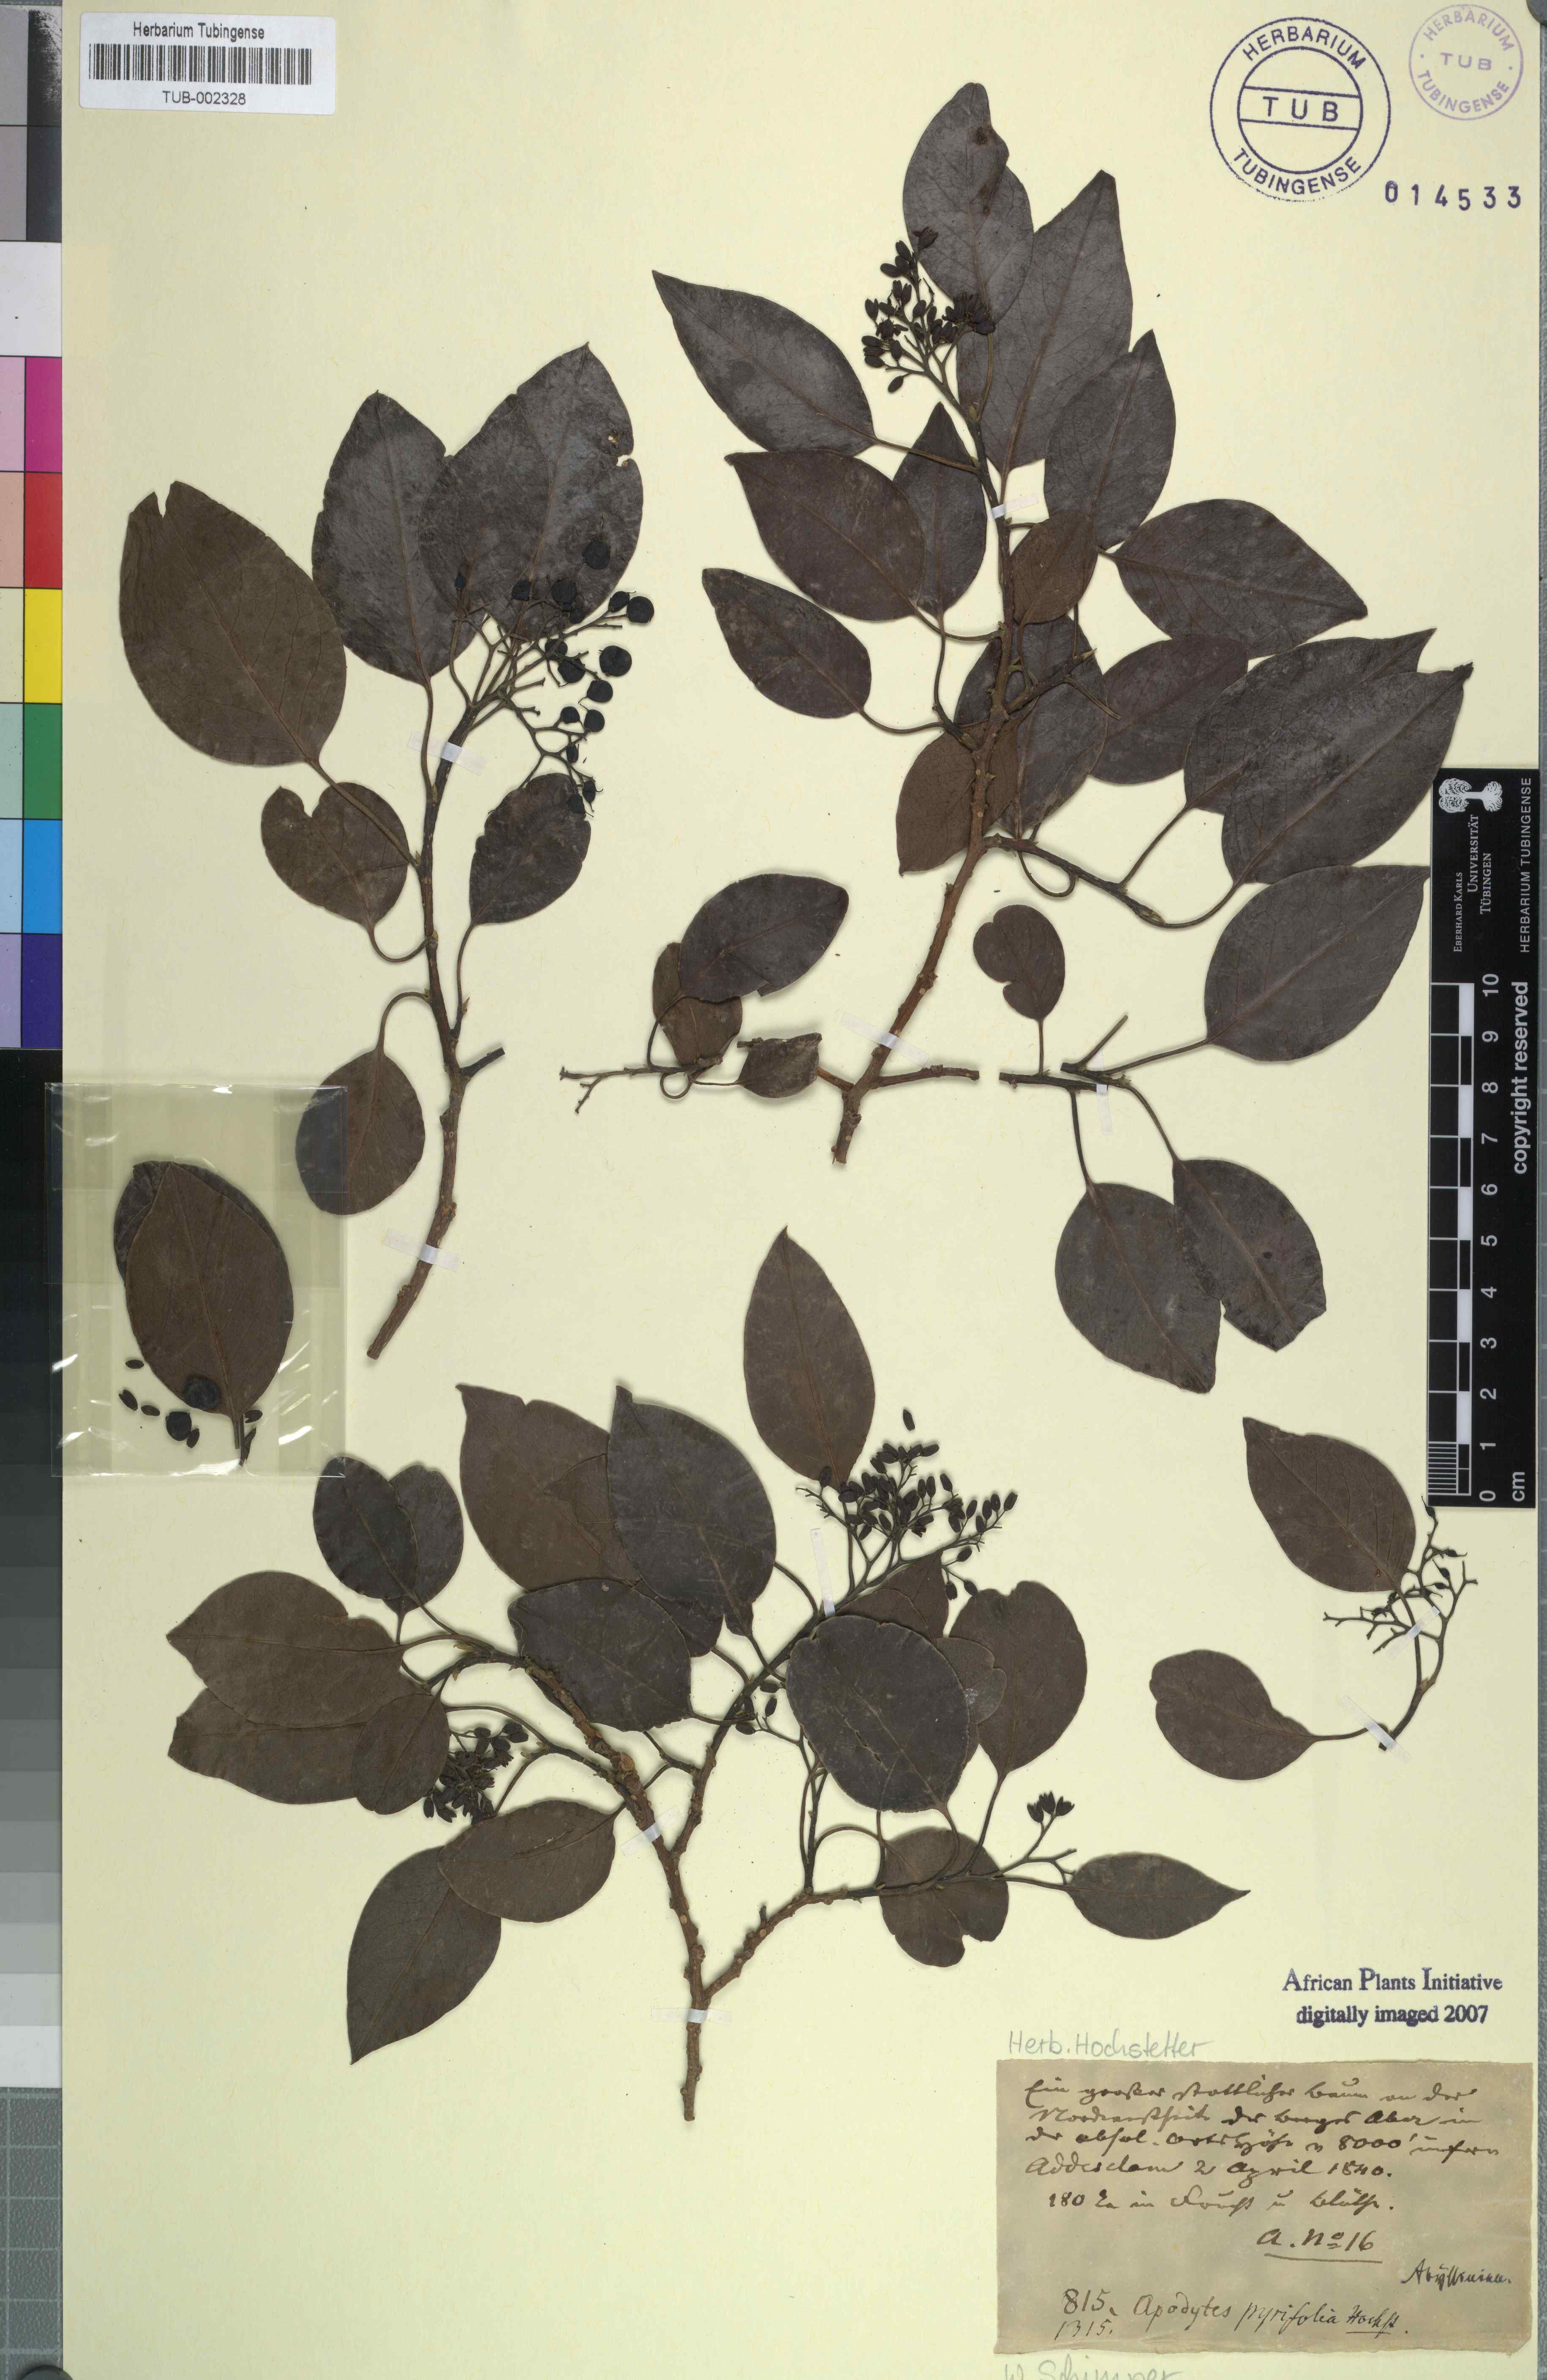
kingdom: Plantae
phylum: Tracheophyta
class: Magnoliopsida
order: Metteniusales
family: Metteniusaceae
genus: Apodytes
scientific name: Apodytes
